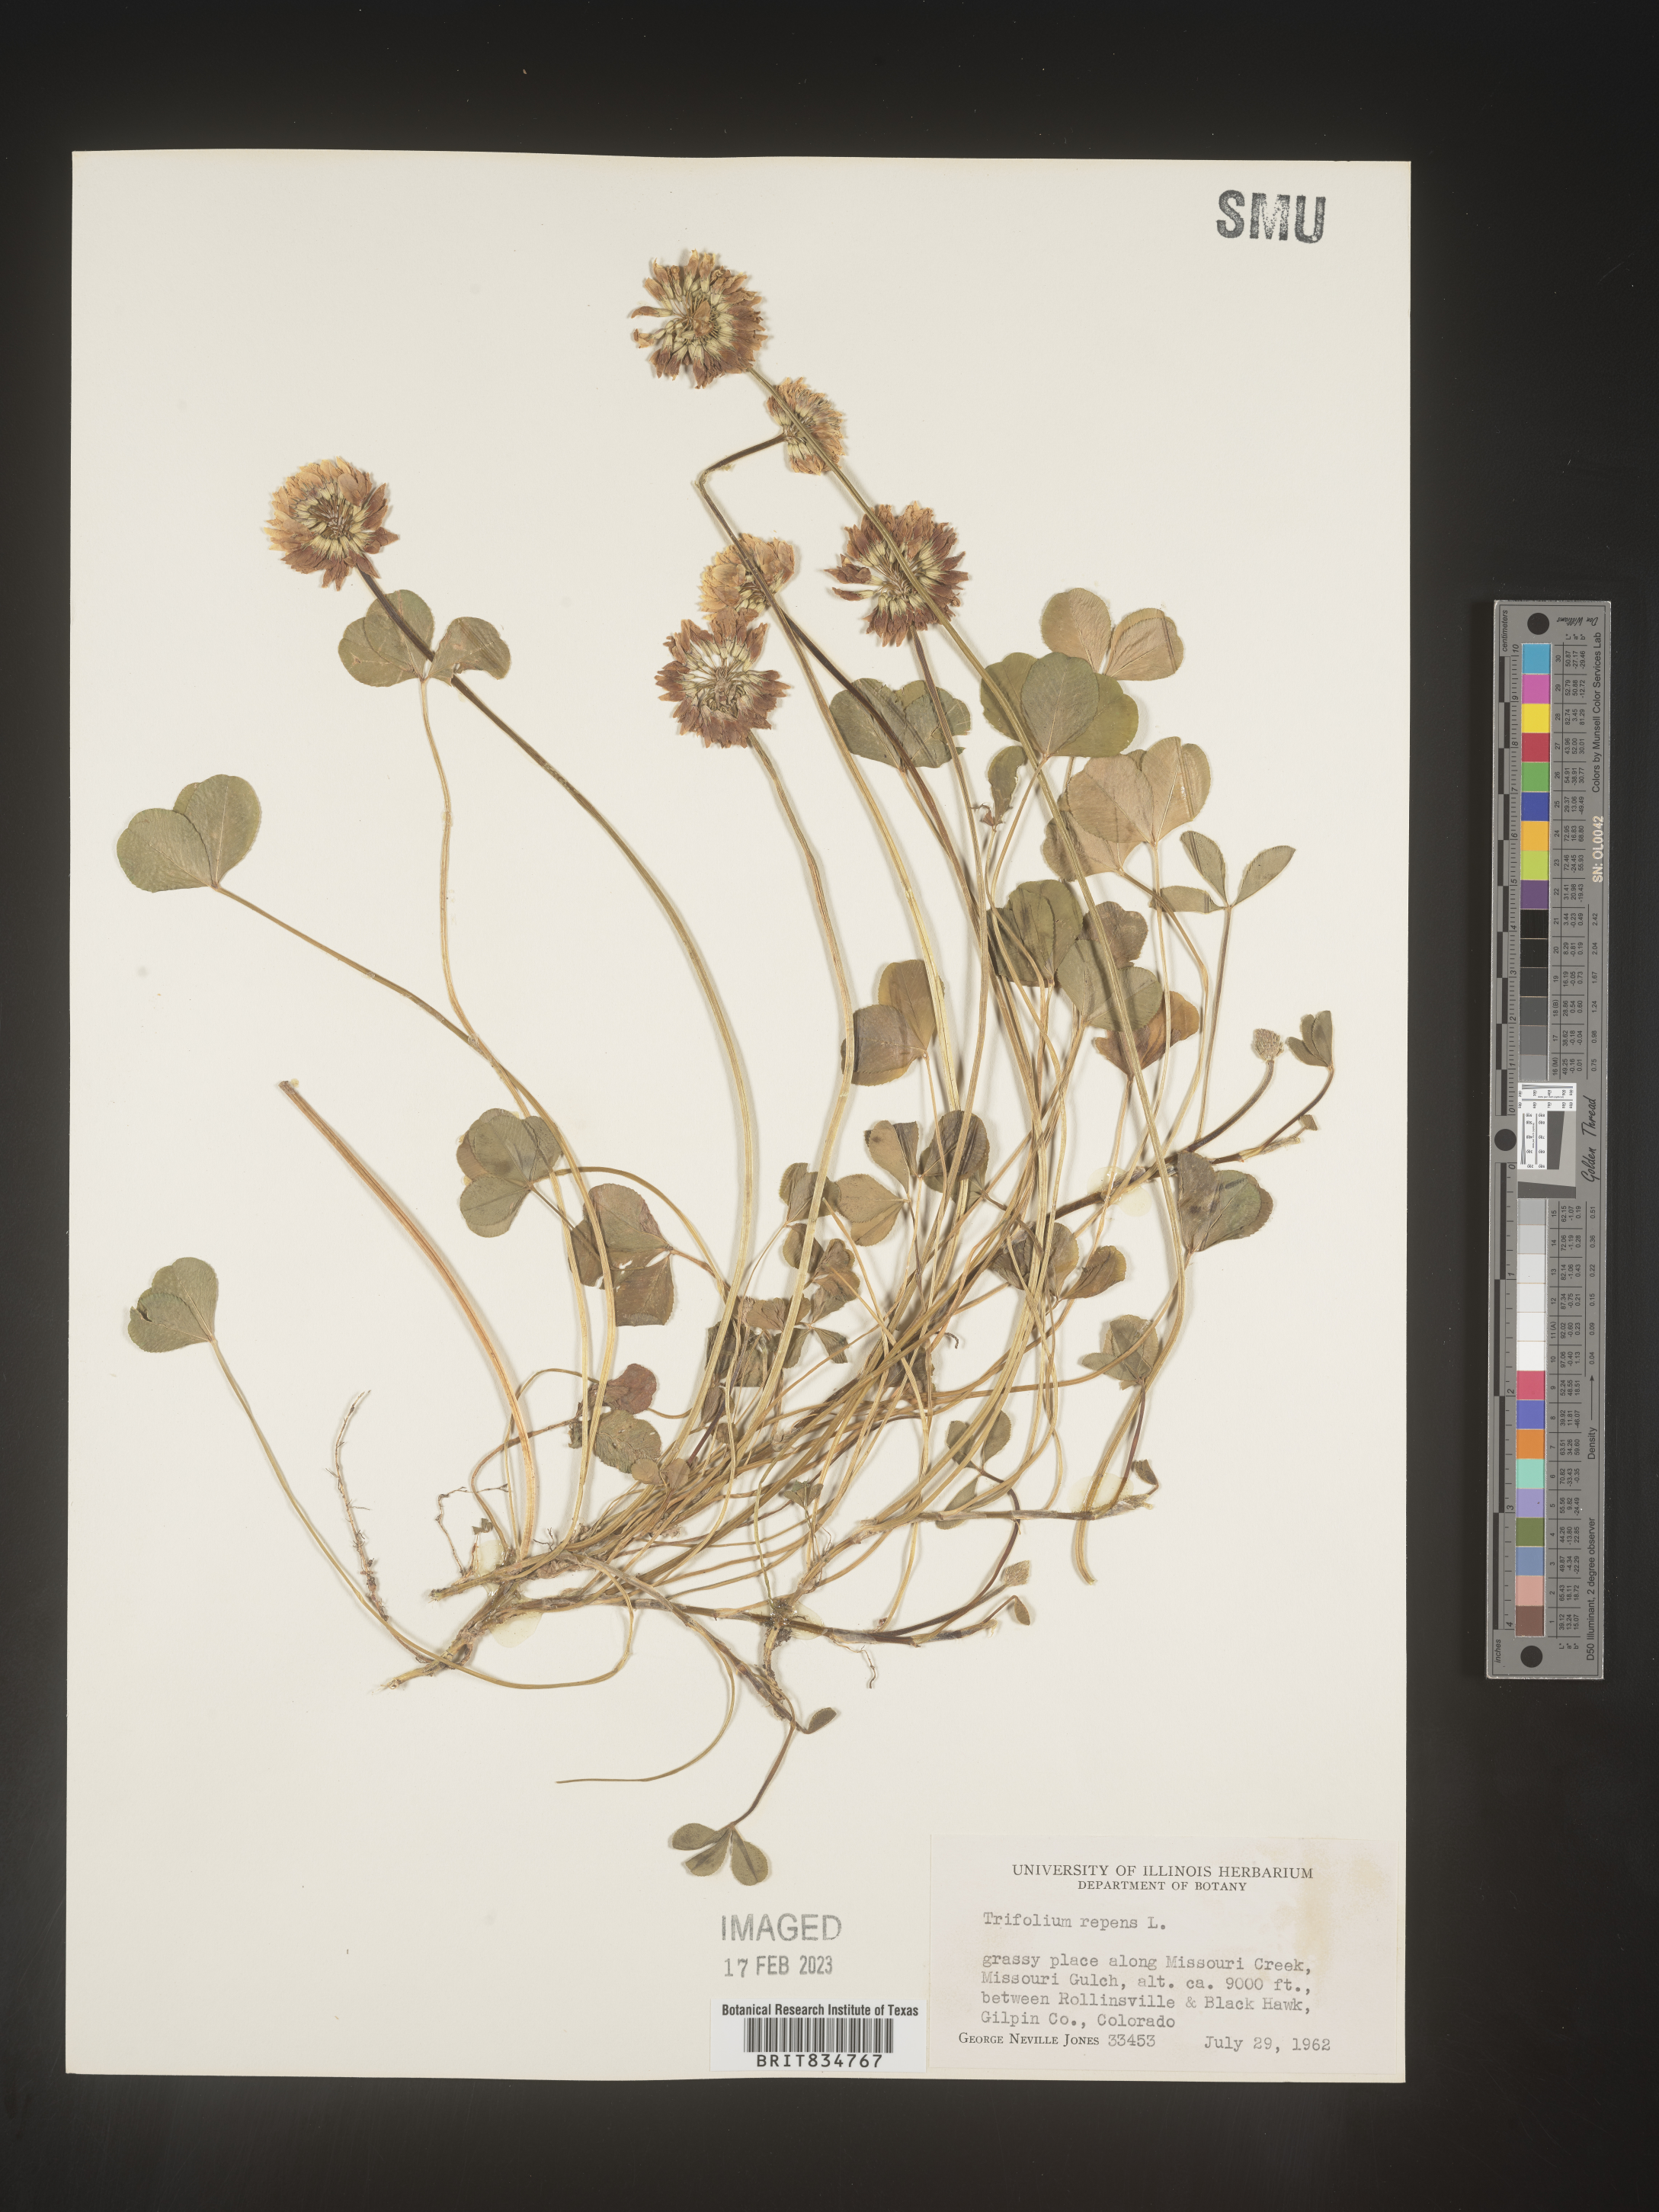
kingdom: Plantae
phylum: Tracheophyta
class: Magnoliopsida
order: Fabales
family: Fabaceae
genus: Trifolium
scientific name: Trifolium repens
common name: White clover
